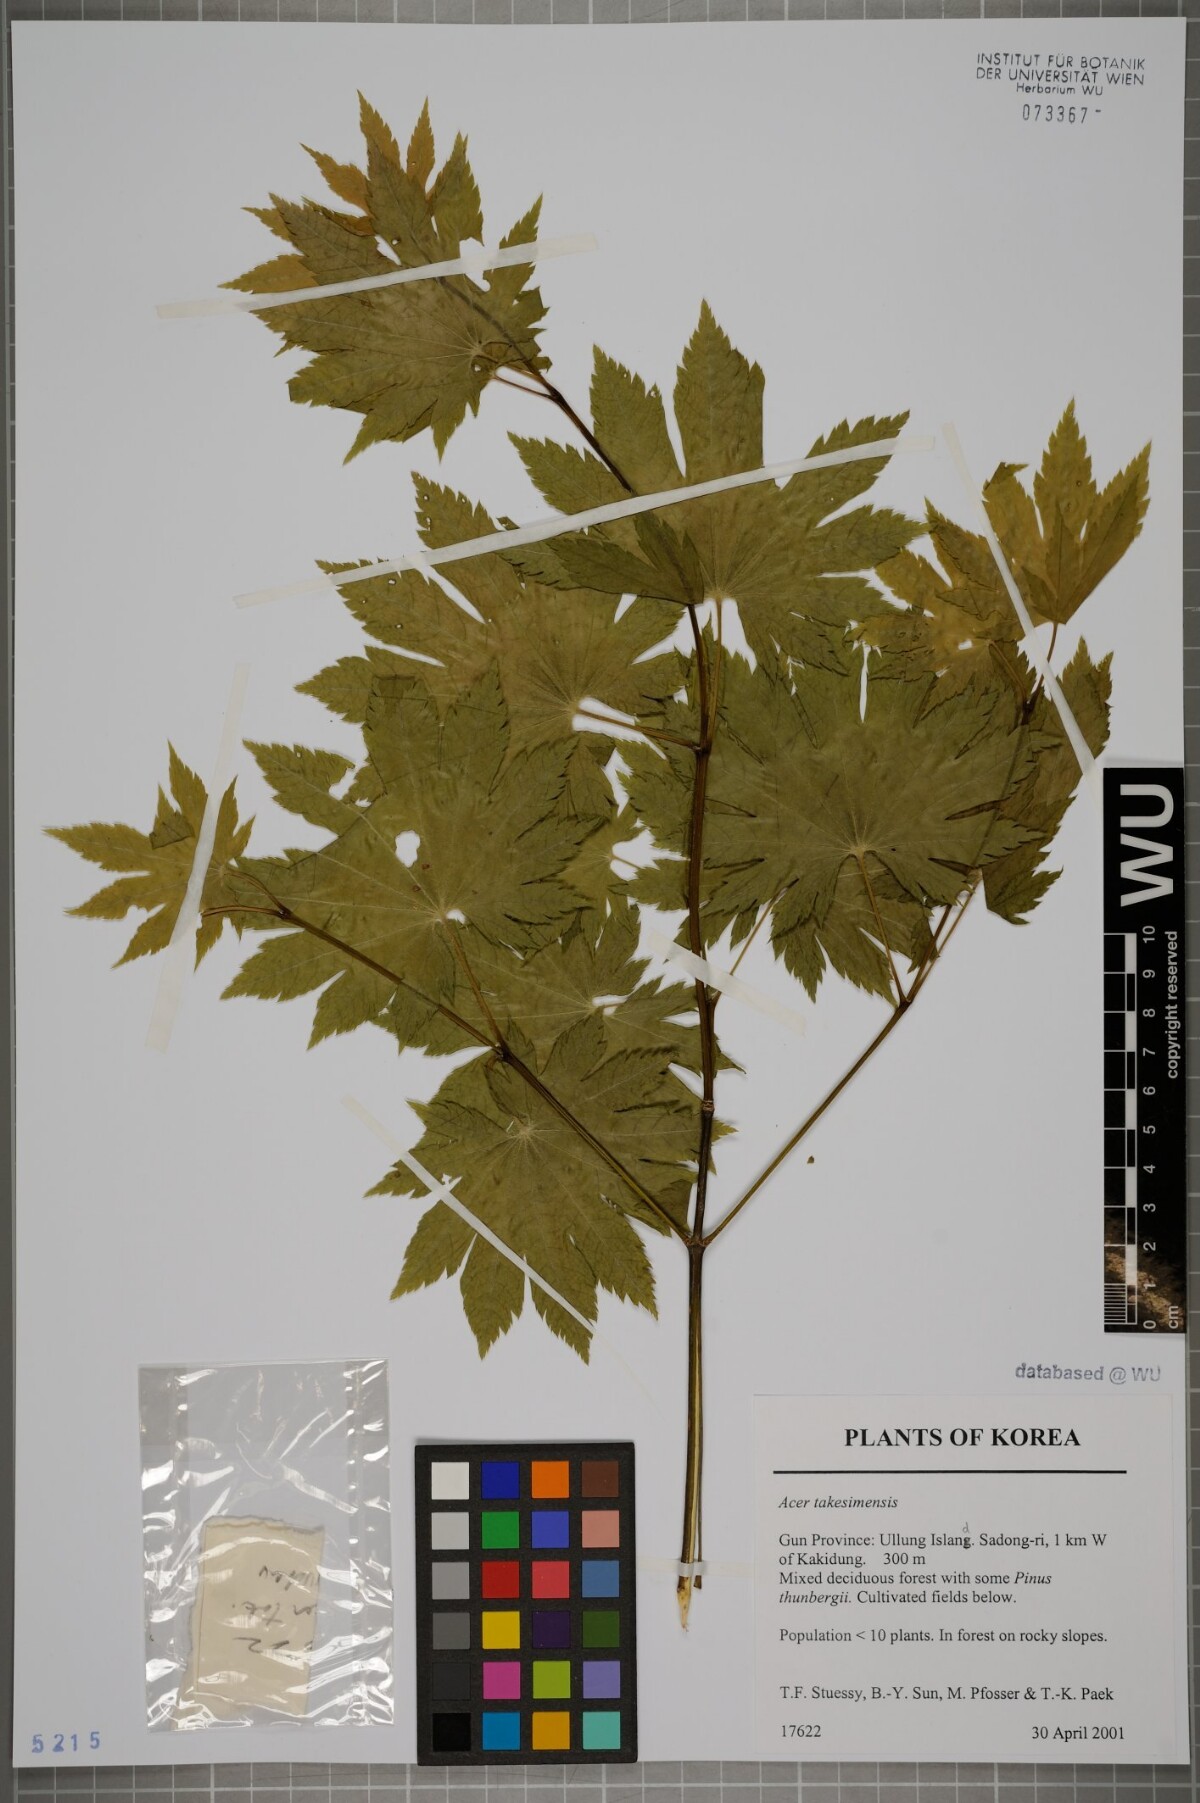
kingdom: Plantae
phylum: Tracheophyta
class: Magnoliopsida
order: Sapindales
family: Sapindaceae
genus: Acer
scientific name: Acer pseudosieboldianum
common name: Korean maple
